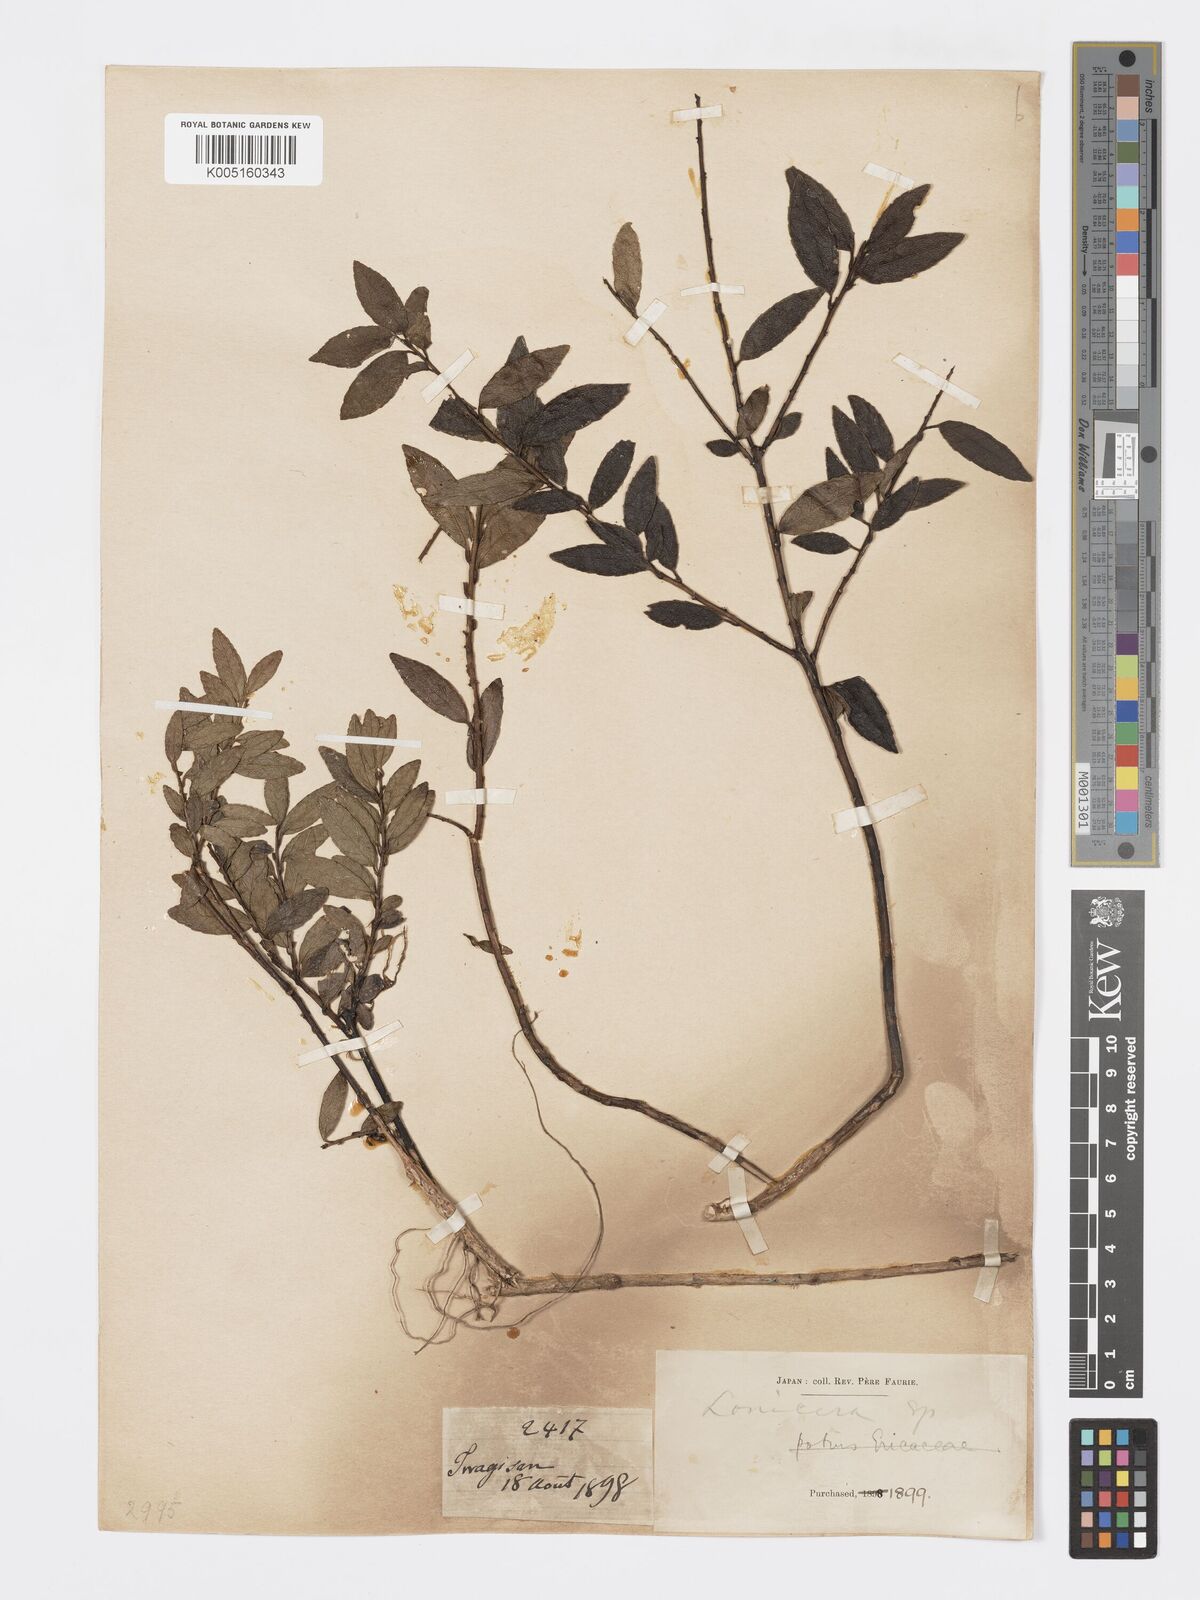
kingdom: Plantae
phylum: Tracheophyta
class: Magnoliopsida
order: Celastrales
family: Celastraceae
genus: Euonymus
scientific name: Euonymus
